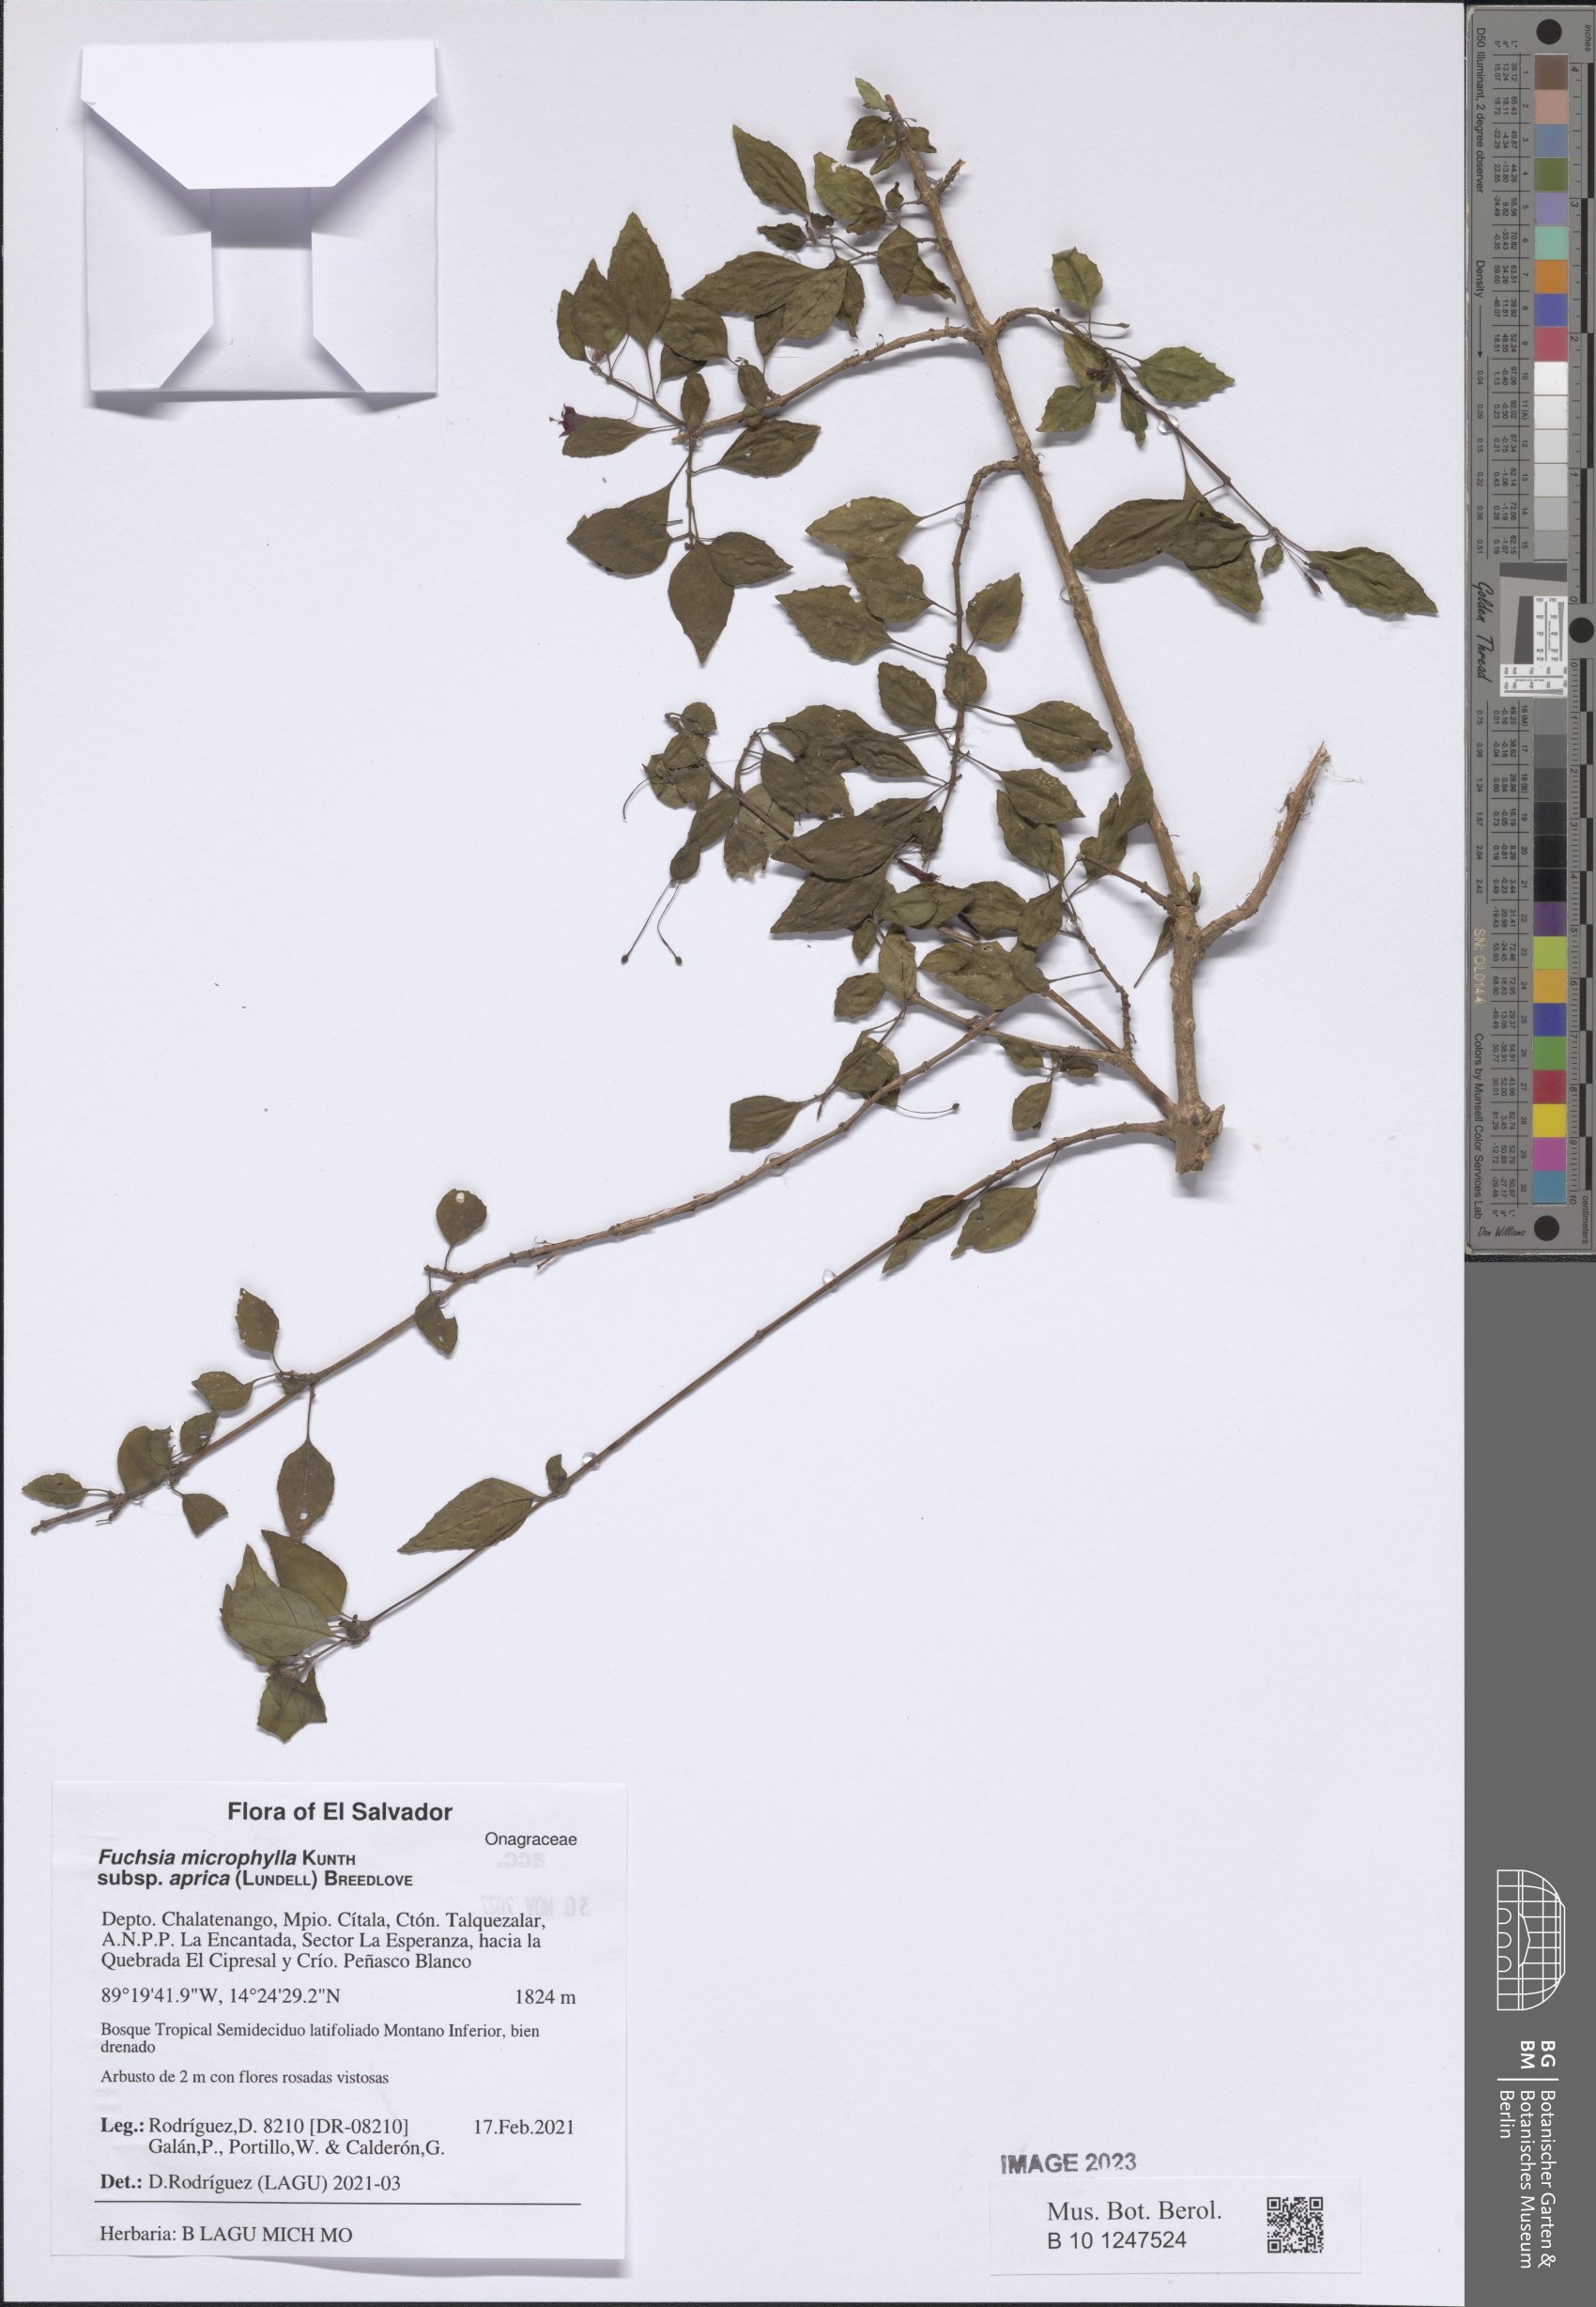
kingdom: Plantae
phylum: Tracheophyta
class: Magnoliopsida
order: Myrtales
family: Onagraceae
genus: Fuchsia
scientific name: Fuchsia microphylla
